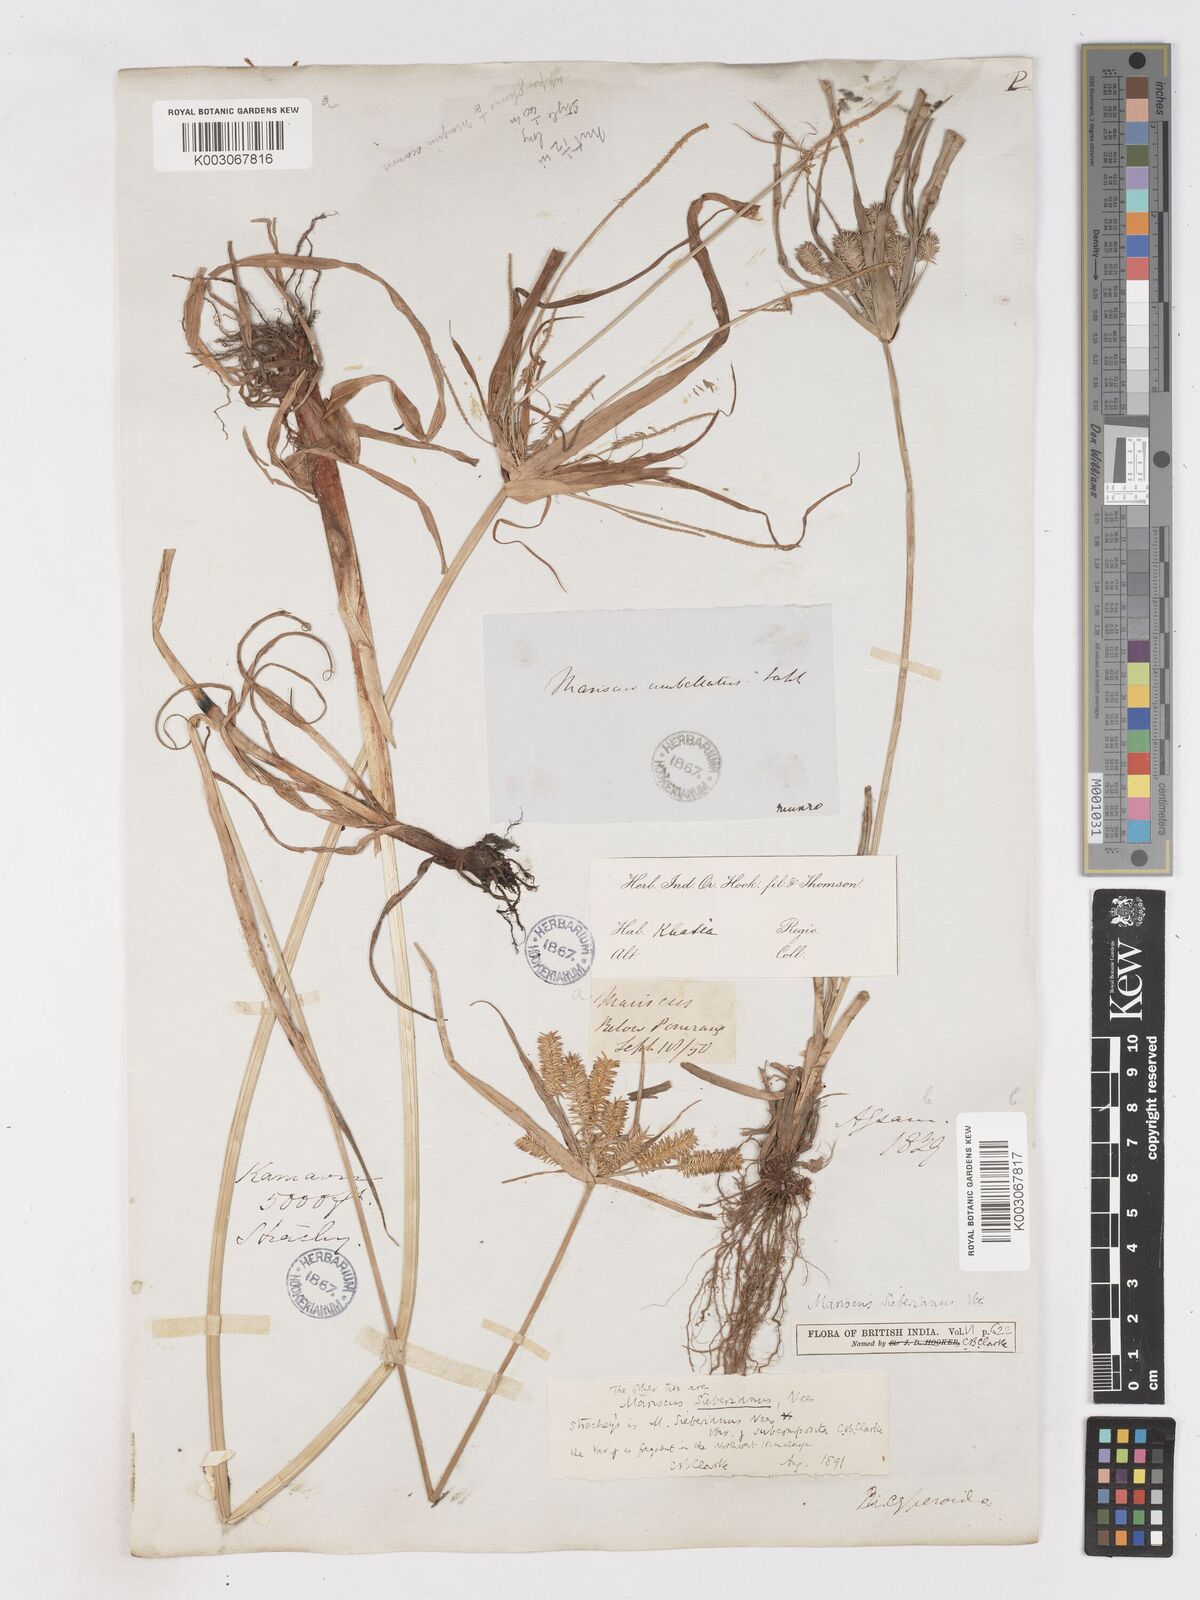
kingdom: Plantae
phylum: Tracheophyta
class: Liliopsida
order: Poales
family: Cyperaceae
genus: Cyperus
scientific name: Cyperus cyperoides
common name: Pacific island flat sedge
